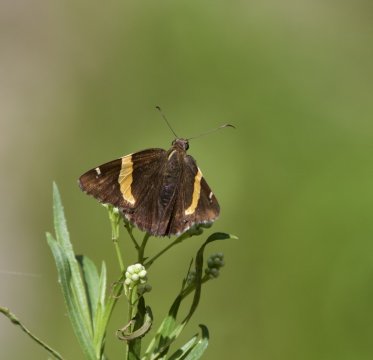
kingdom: Animalia
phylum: Arthropoda
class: Arachnida
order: Scorpiones
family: Bothriuridae
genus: Telegonus
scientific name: Telegonus cellus
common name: Golden Banded-Skipper
